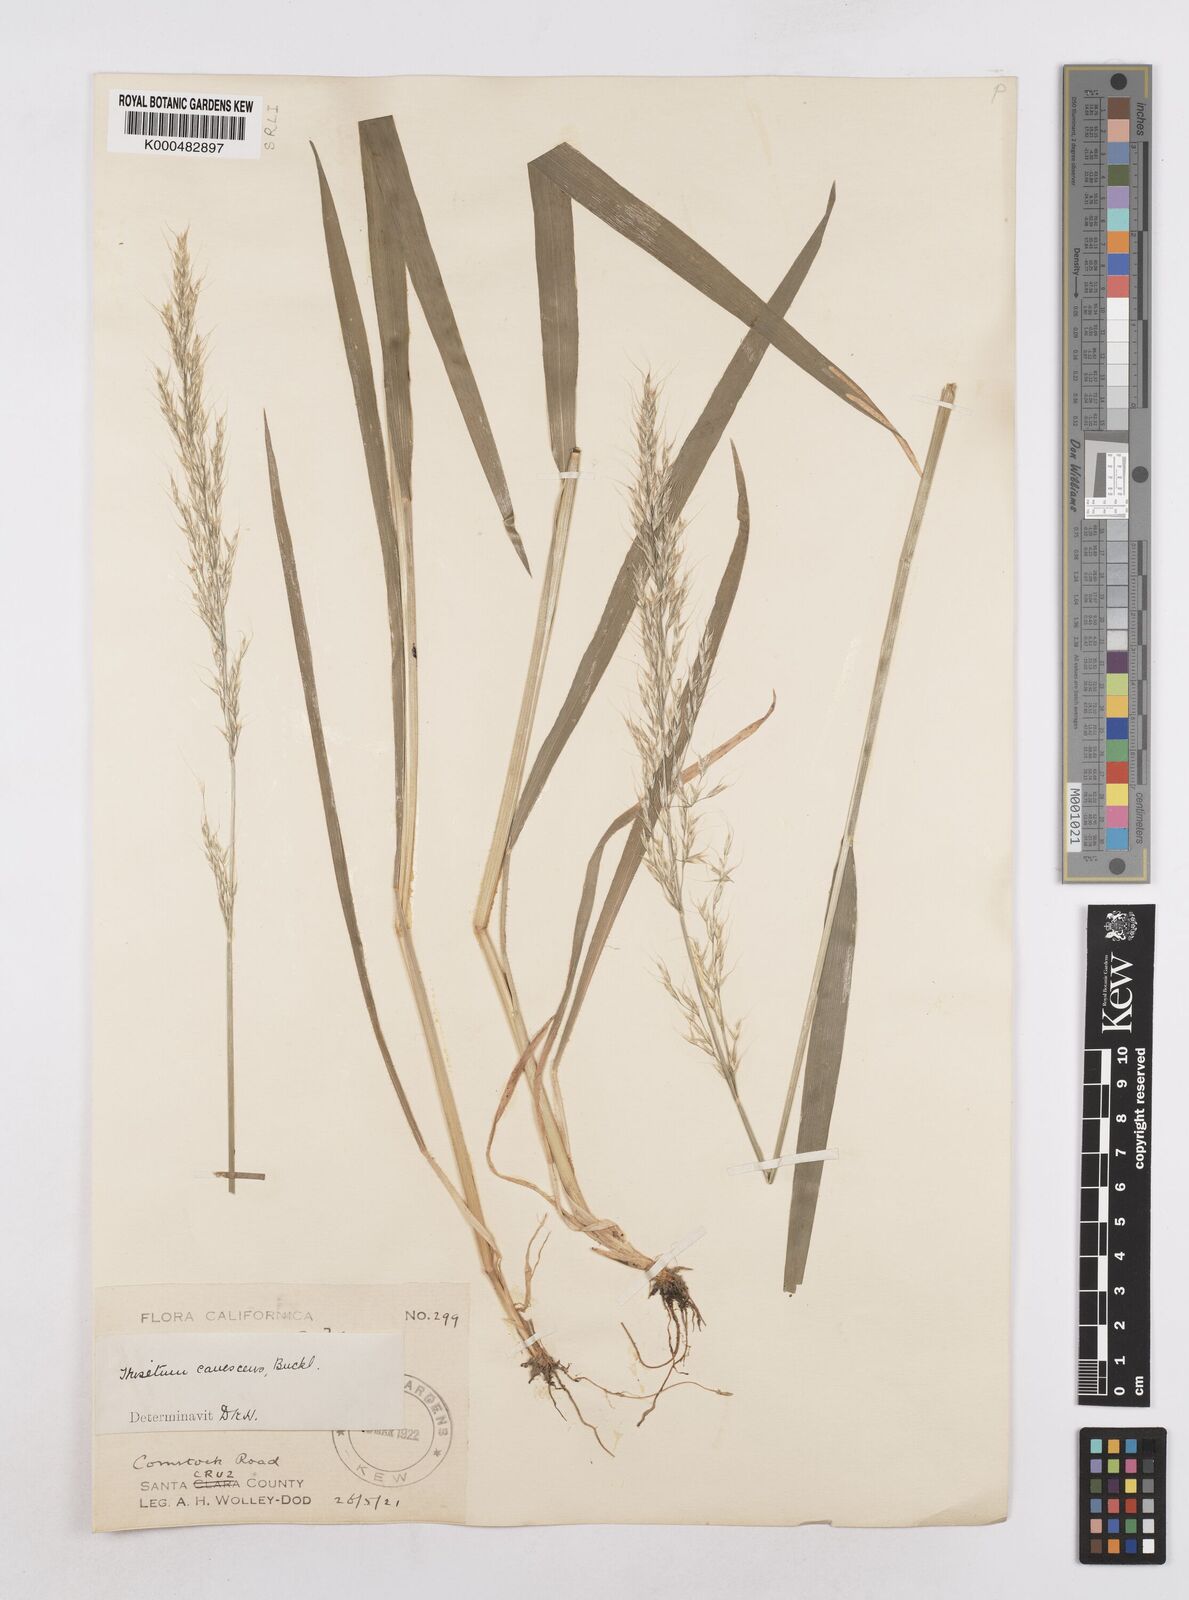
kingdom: Plantae
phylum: Tracheophyta
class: Liliopsida
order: Poales
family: Poaceae
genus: Graphephorum
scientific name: Graphephorum canescens
